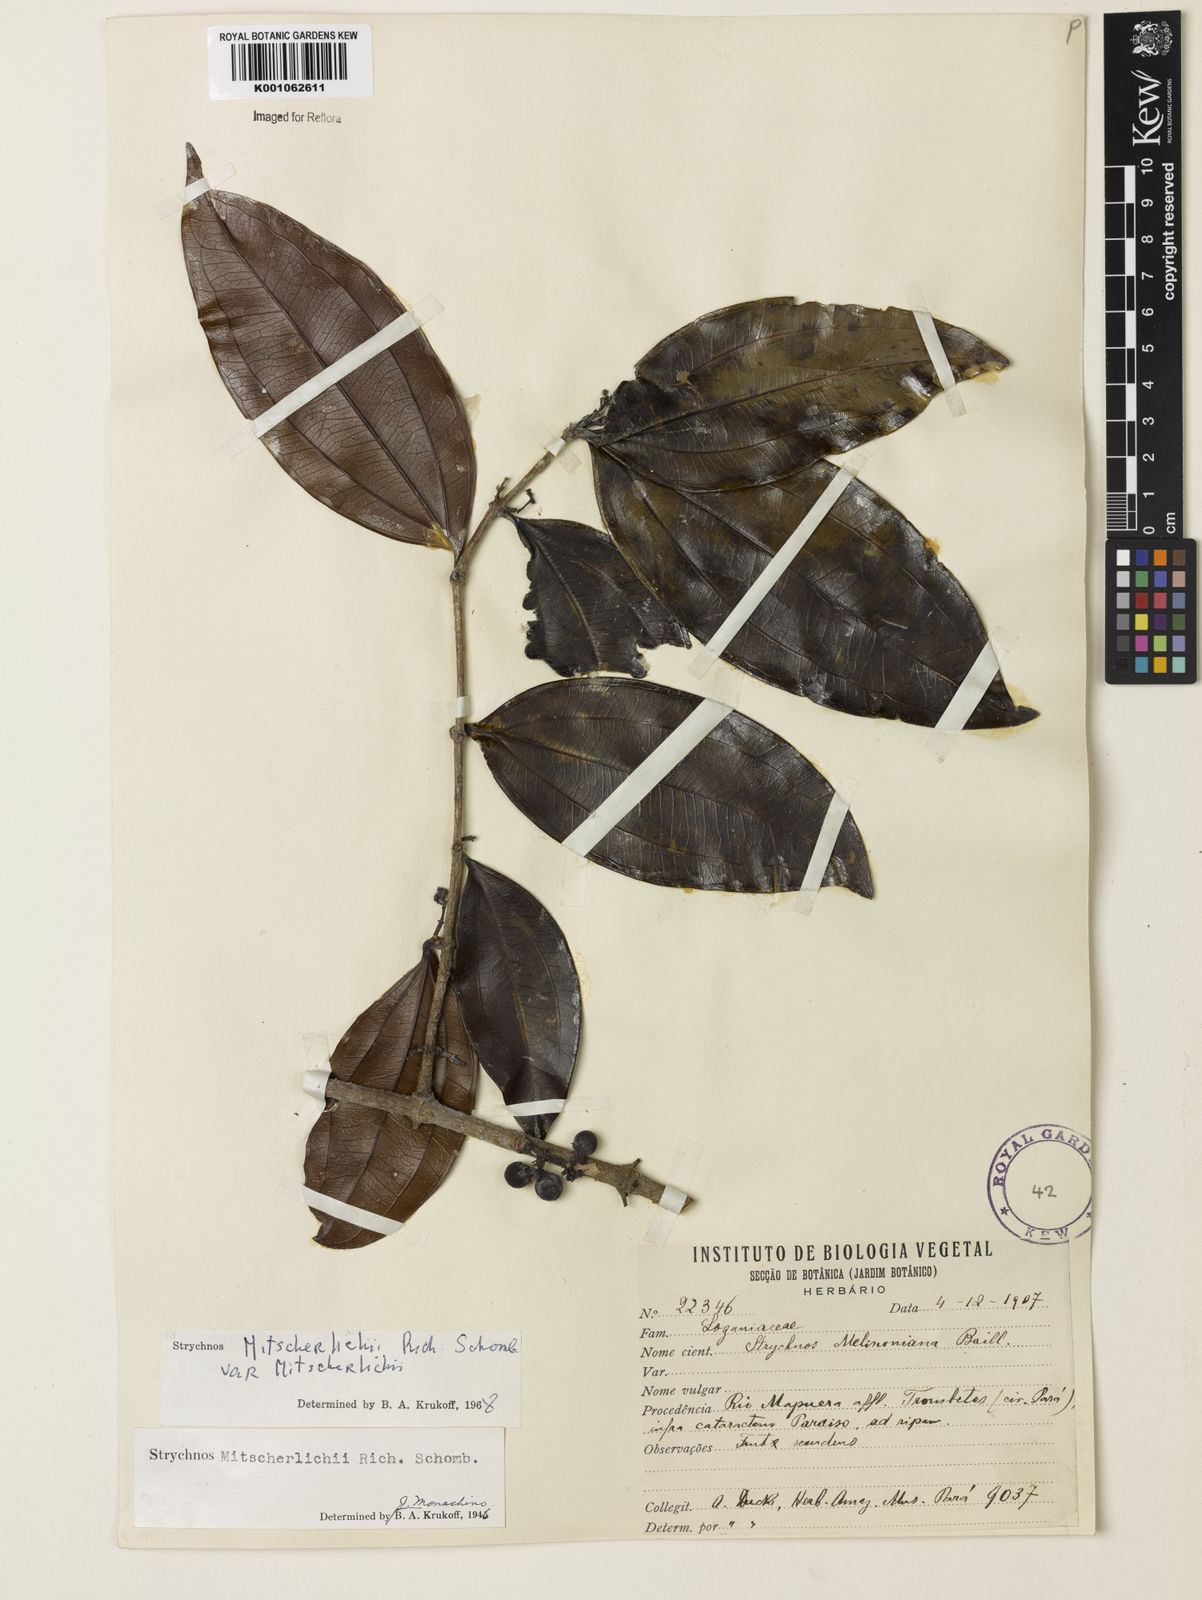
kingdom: Plantae
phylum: Tracheophyta
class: Magnoliopsida
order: Gentianales
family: Loganiaceae
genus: Strychnos
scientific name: Strychnos mitscherlichii
